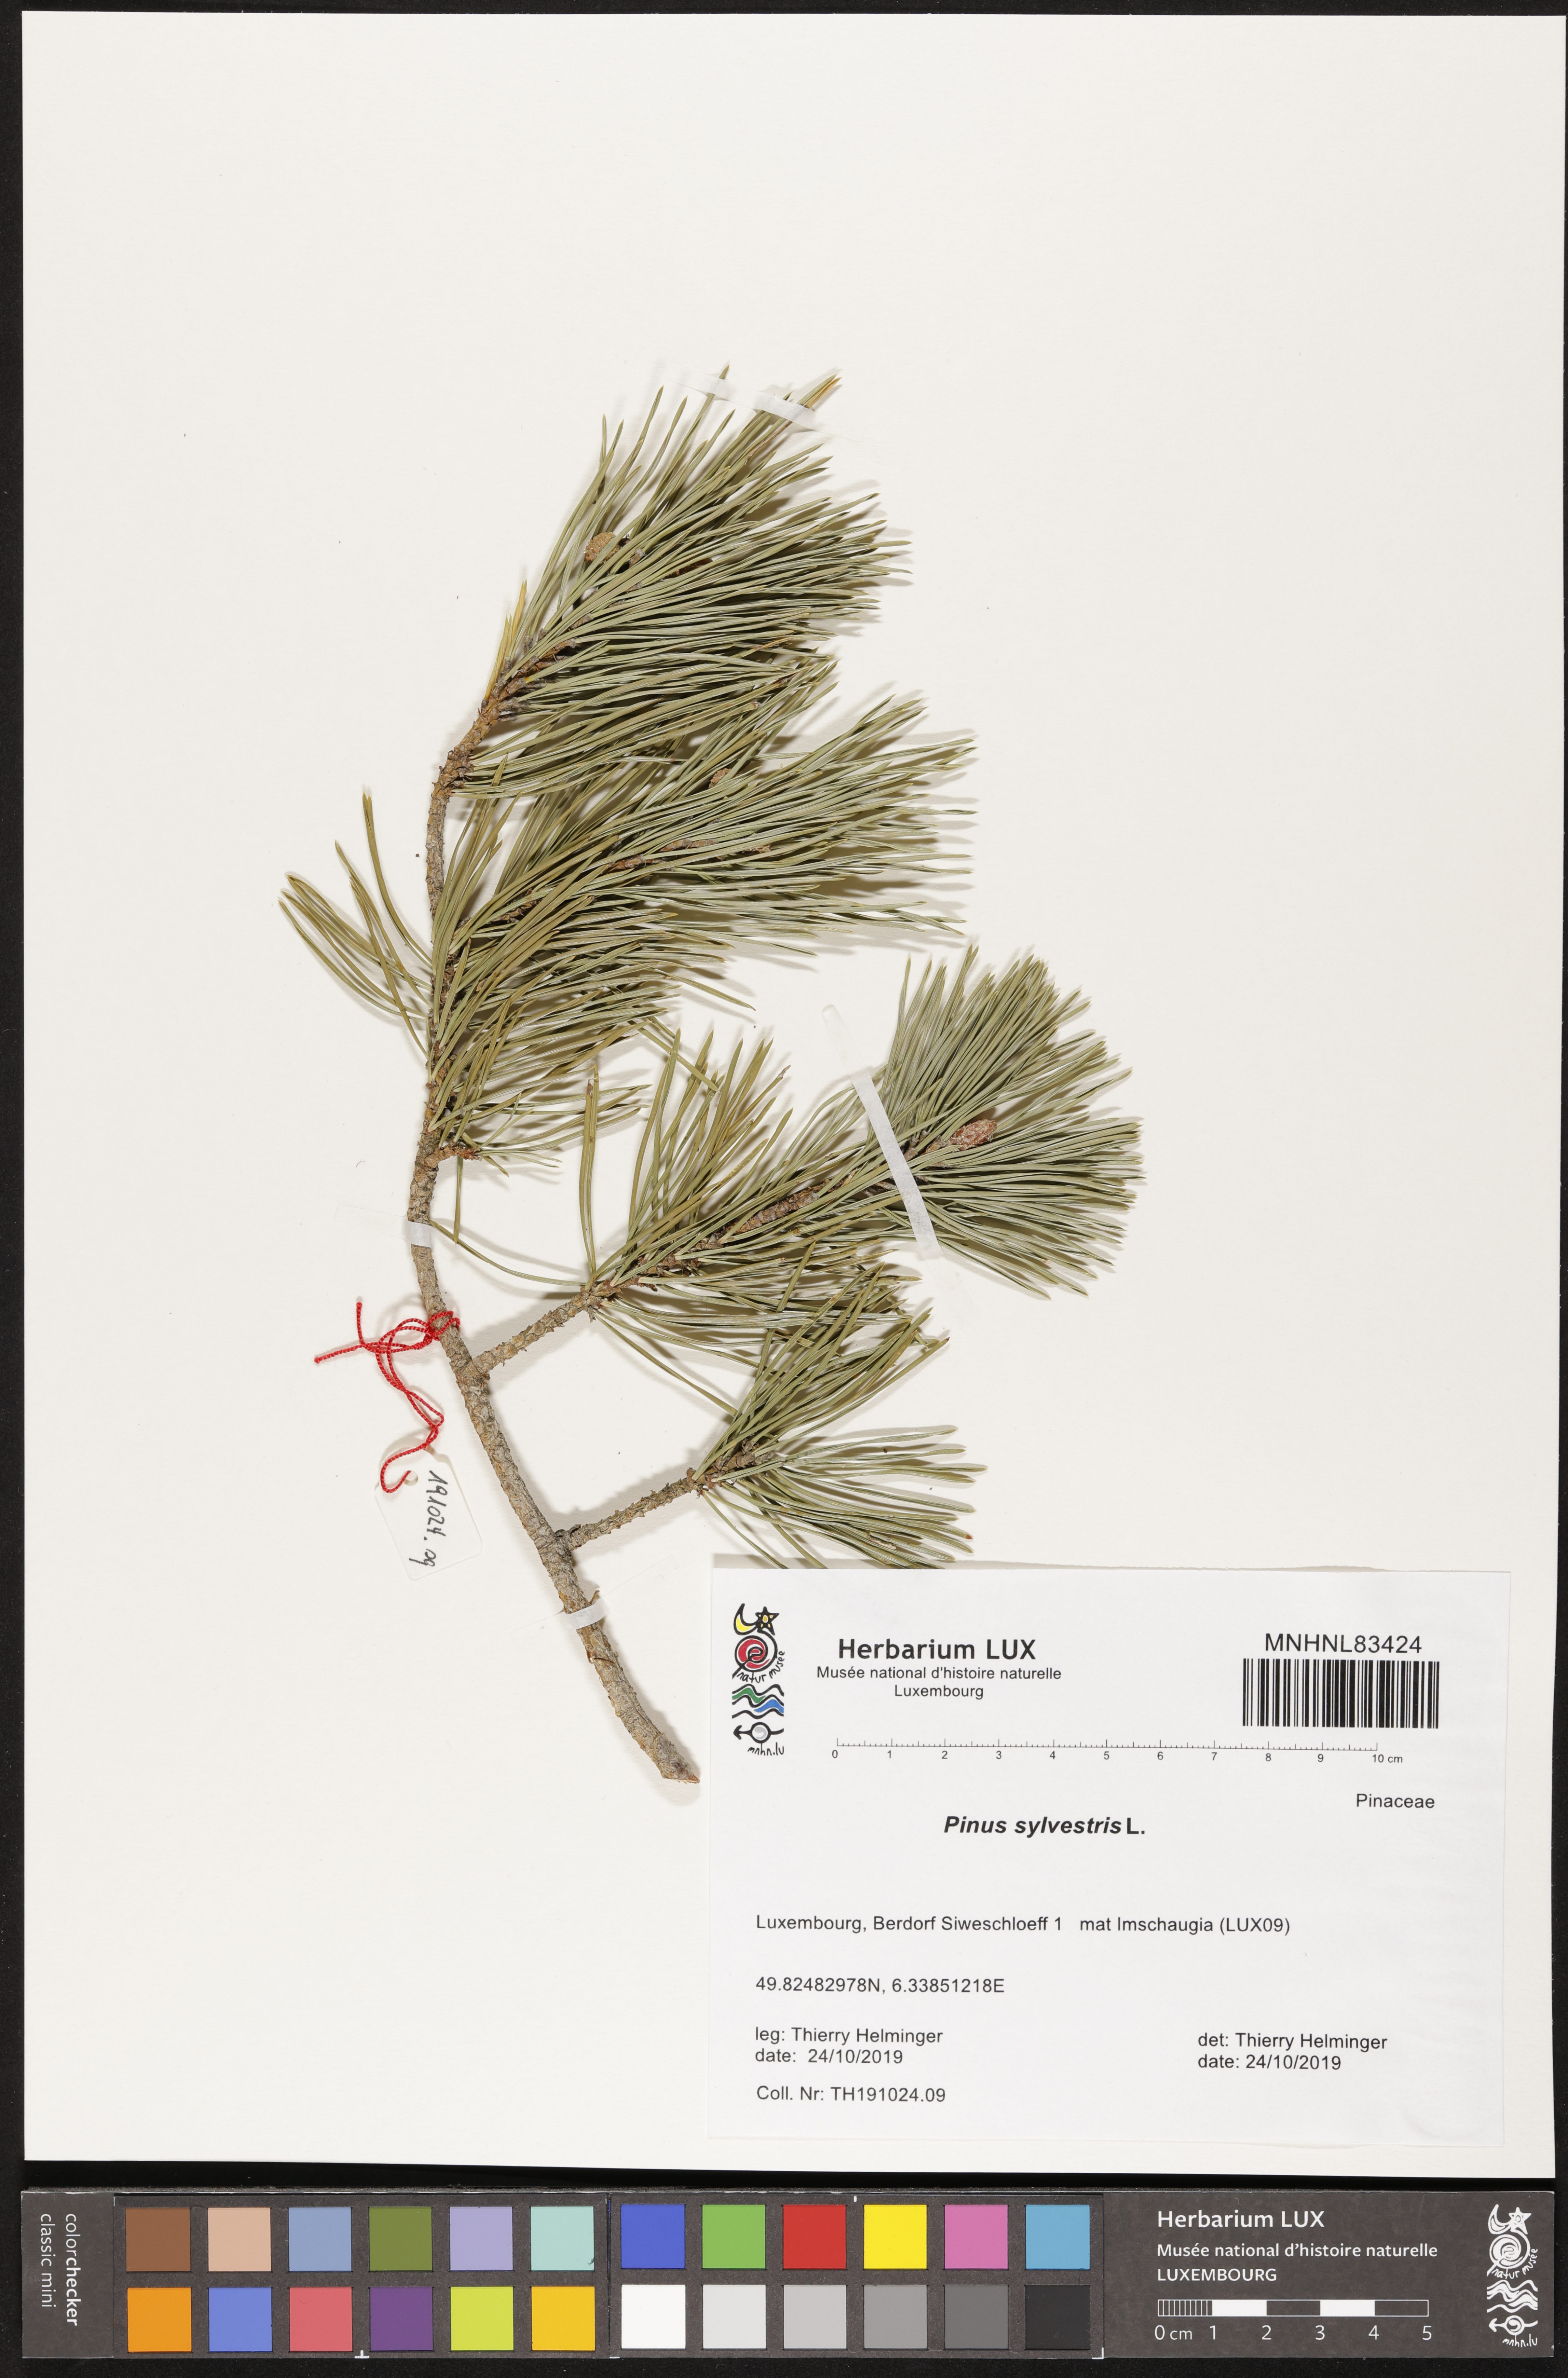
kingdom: Plantae
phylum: Tracheophyta
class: Pinopsida
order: Pinales
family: Pinaceae
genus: Pinus
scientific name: Pinus sylvestris
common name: Scots pine
